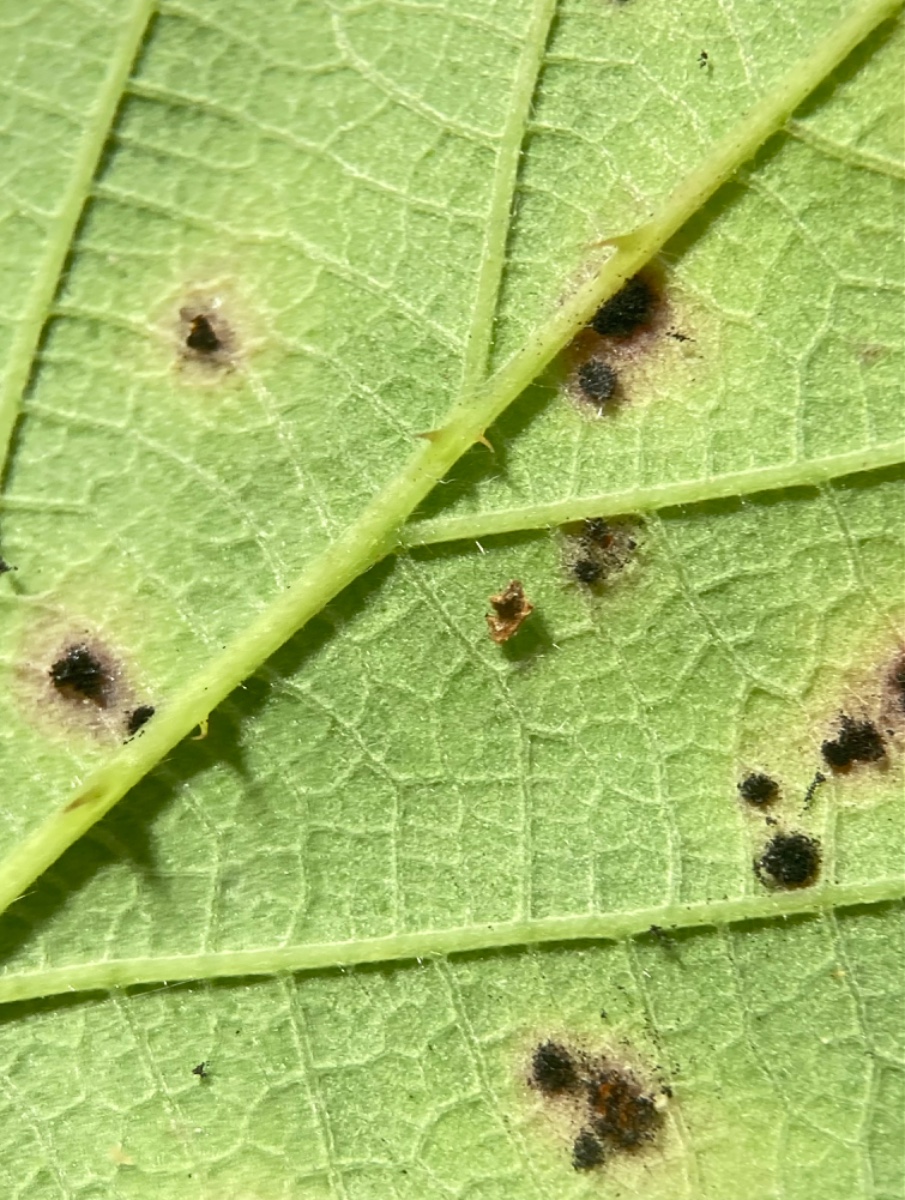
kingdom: Fungi
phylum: Basidiomycota
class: Pucciniomycetes
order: Pucciniales
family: Phragmidiaceae
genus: Phragmidium
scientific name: Phragmidium violaceum
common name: violet flercellerust
